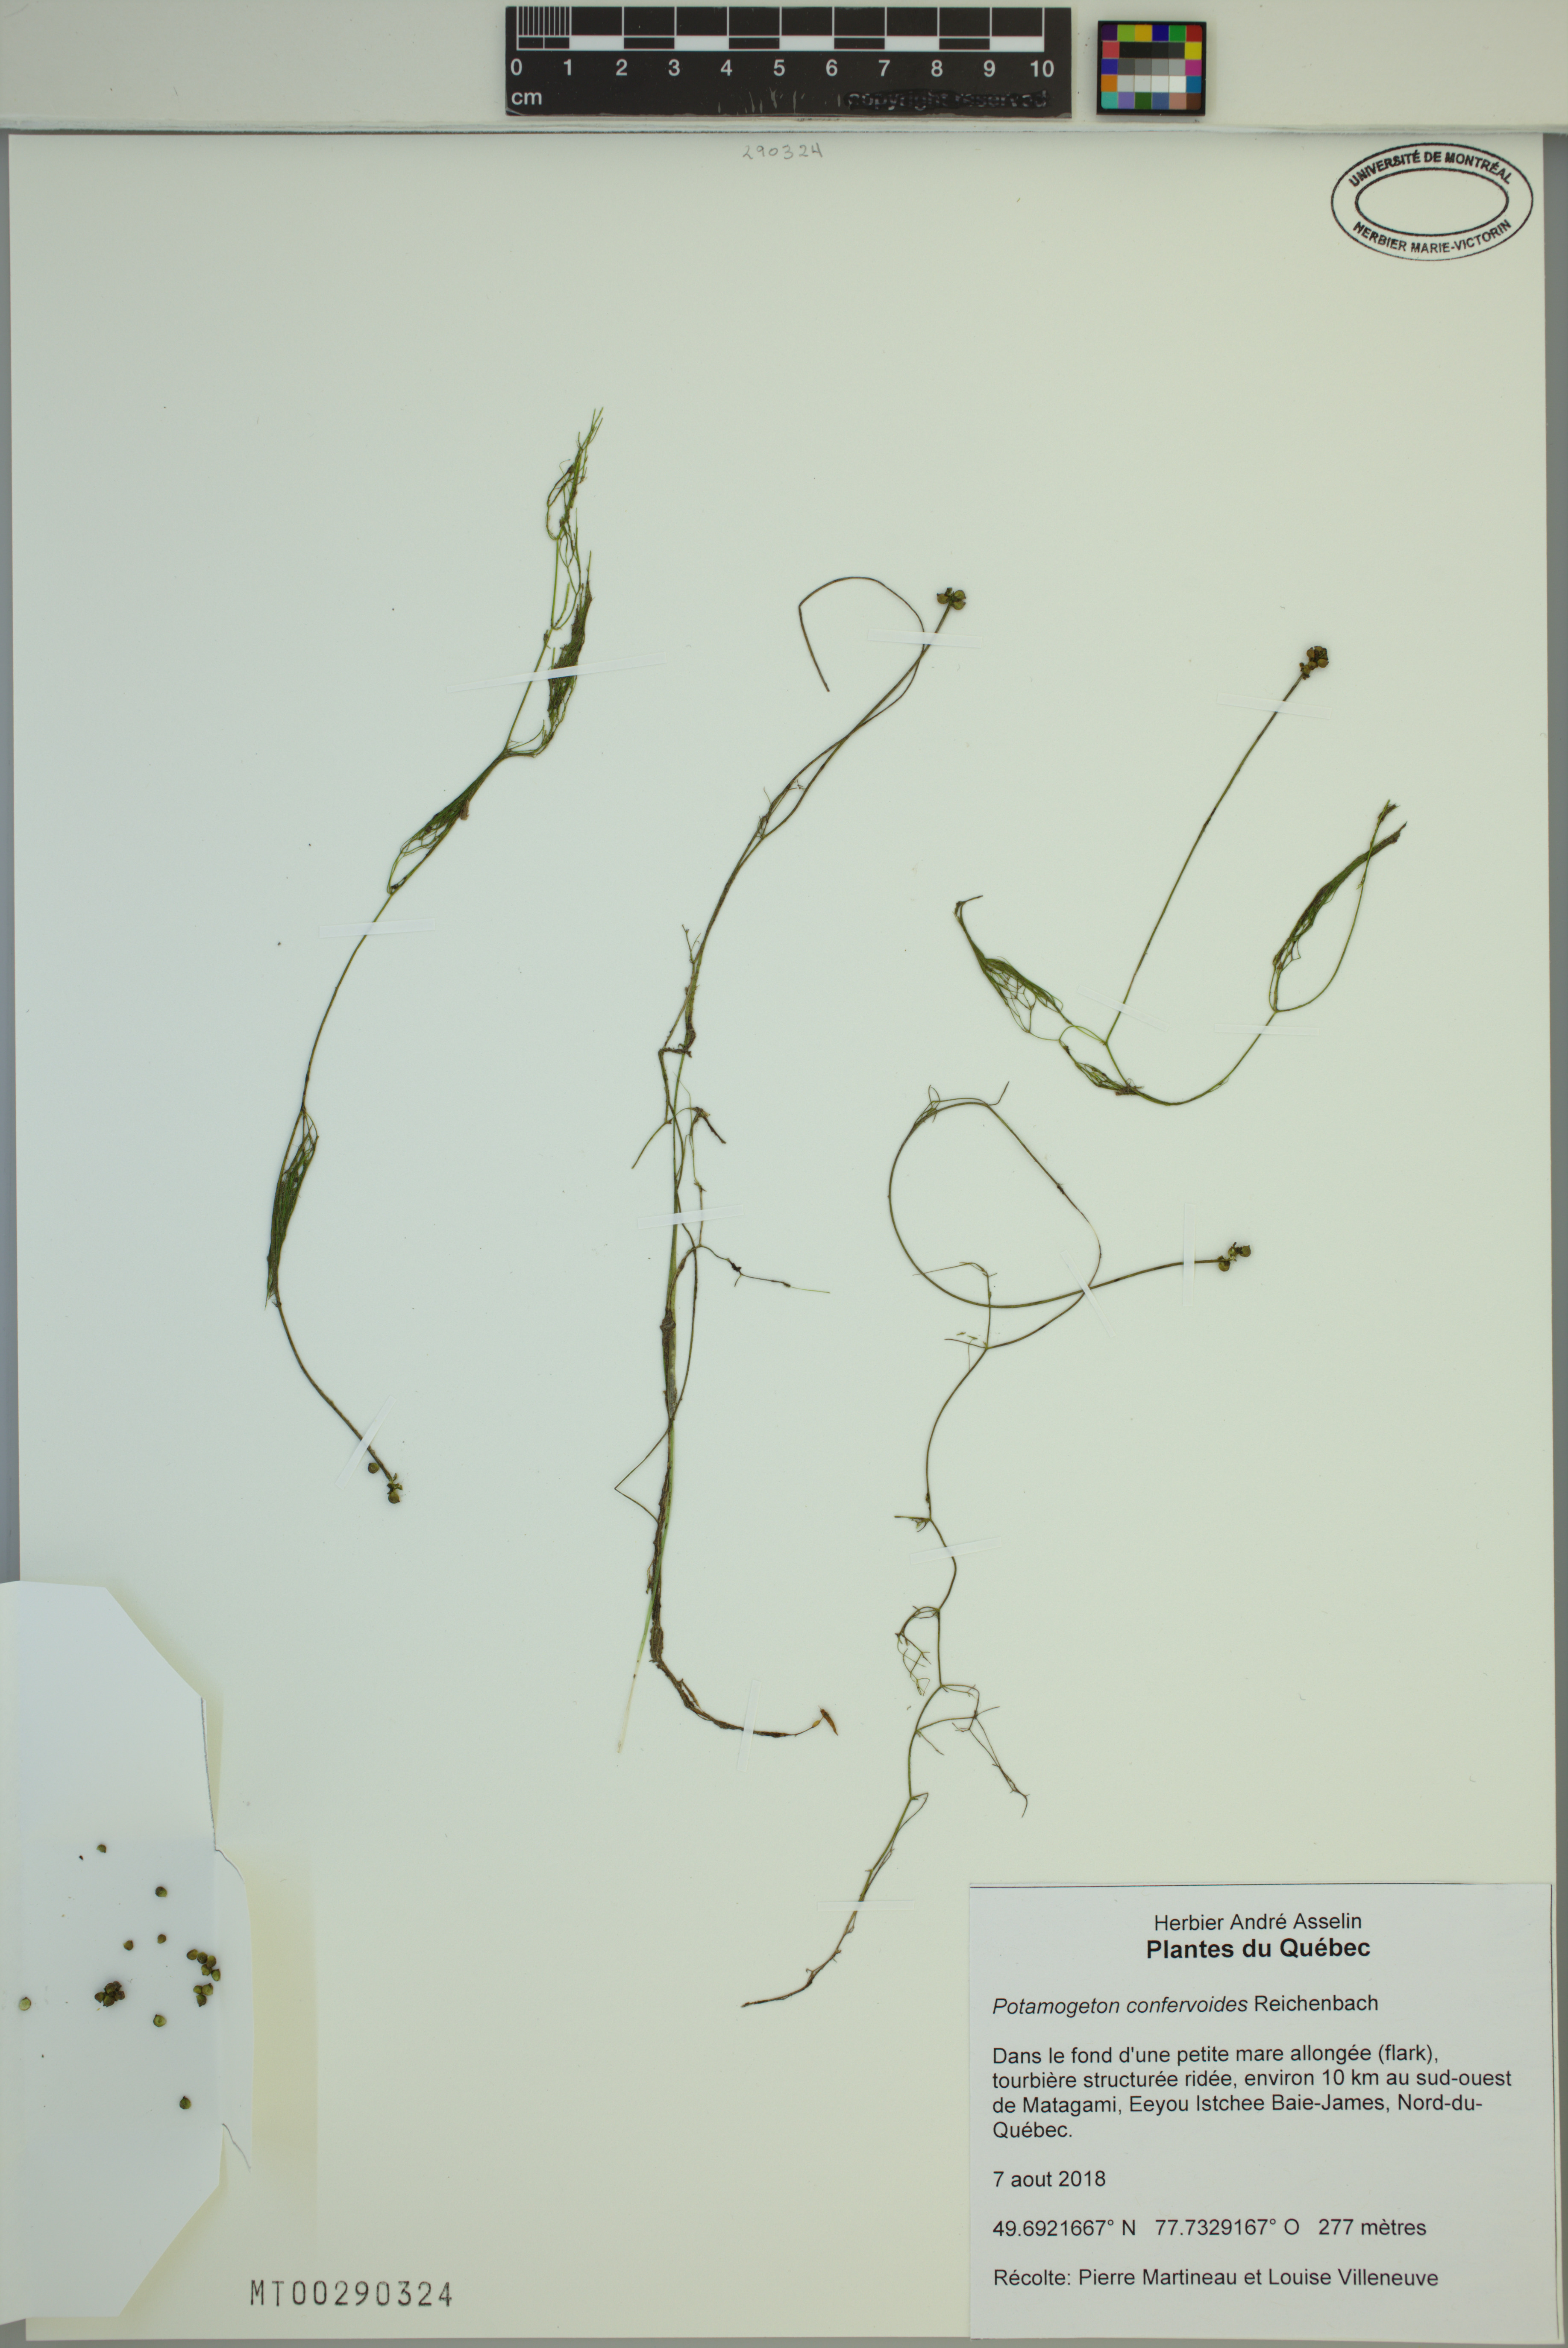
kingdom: Plantae
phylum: Tracheophyta
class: Liliopsida
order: Alismatales
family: Potamogetonaceae
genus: Potamogeton
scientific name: Potamogeton confervoides
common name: Alga pondweed
